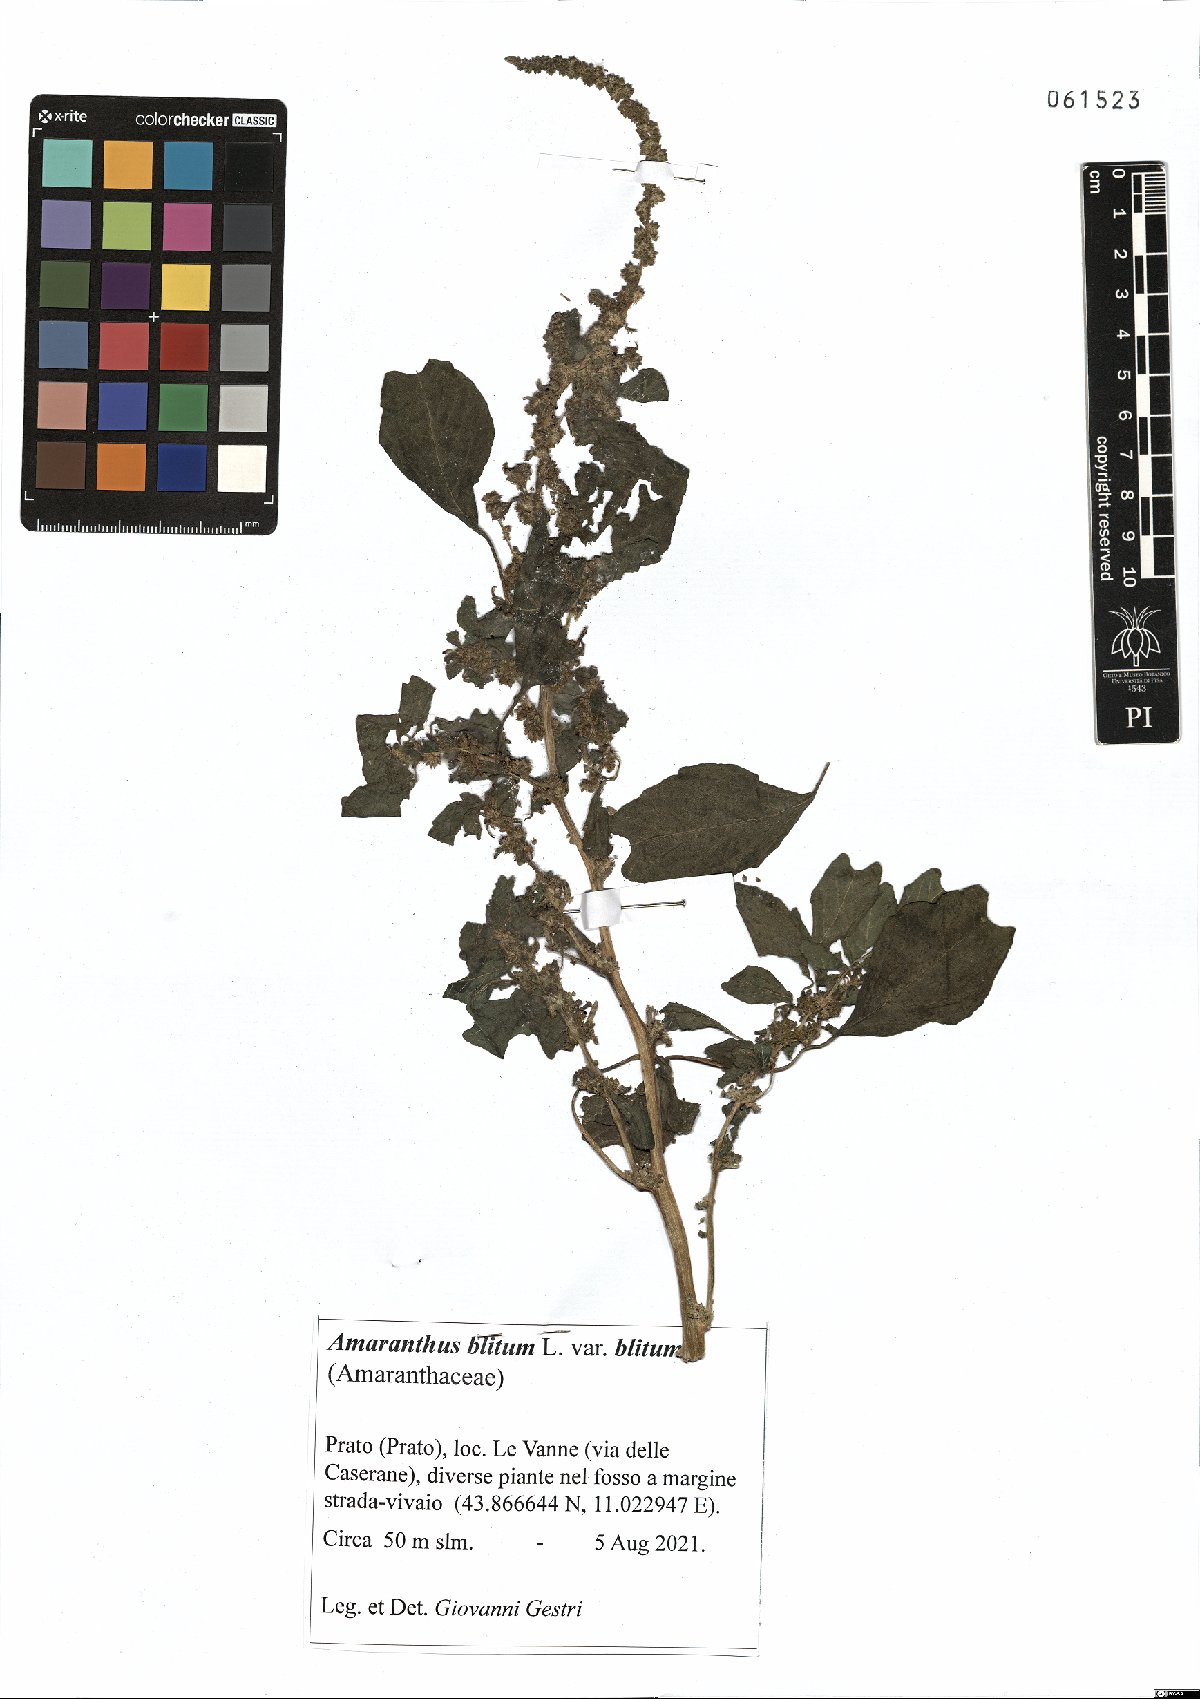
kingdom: Plantae
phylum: Tracheophyta
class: Magnoliopsida
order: Caryophyllales
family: Amaranthaceae
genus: Amaranthus
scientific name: Amaranthus blitum
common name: Purple amaranth
